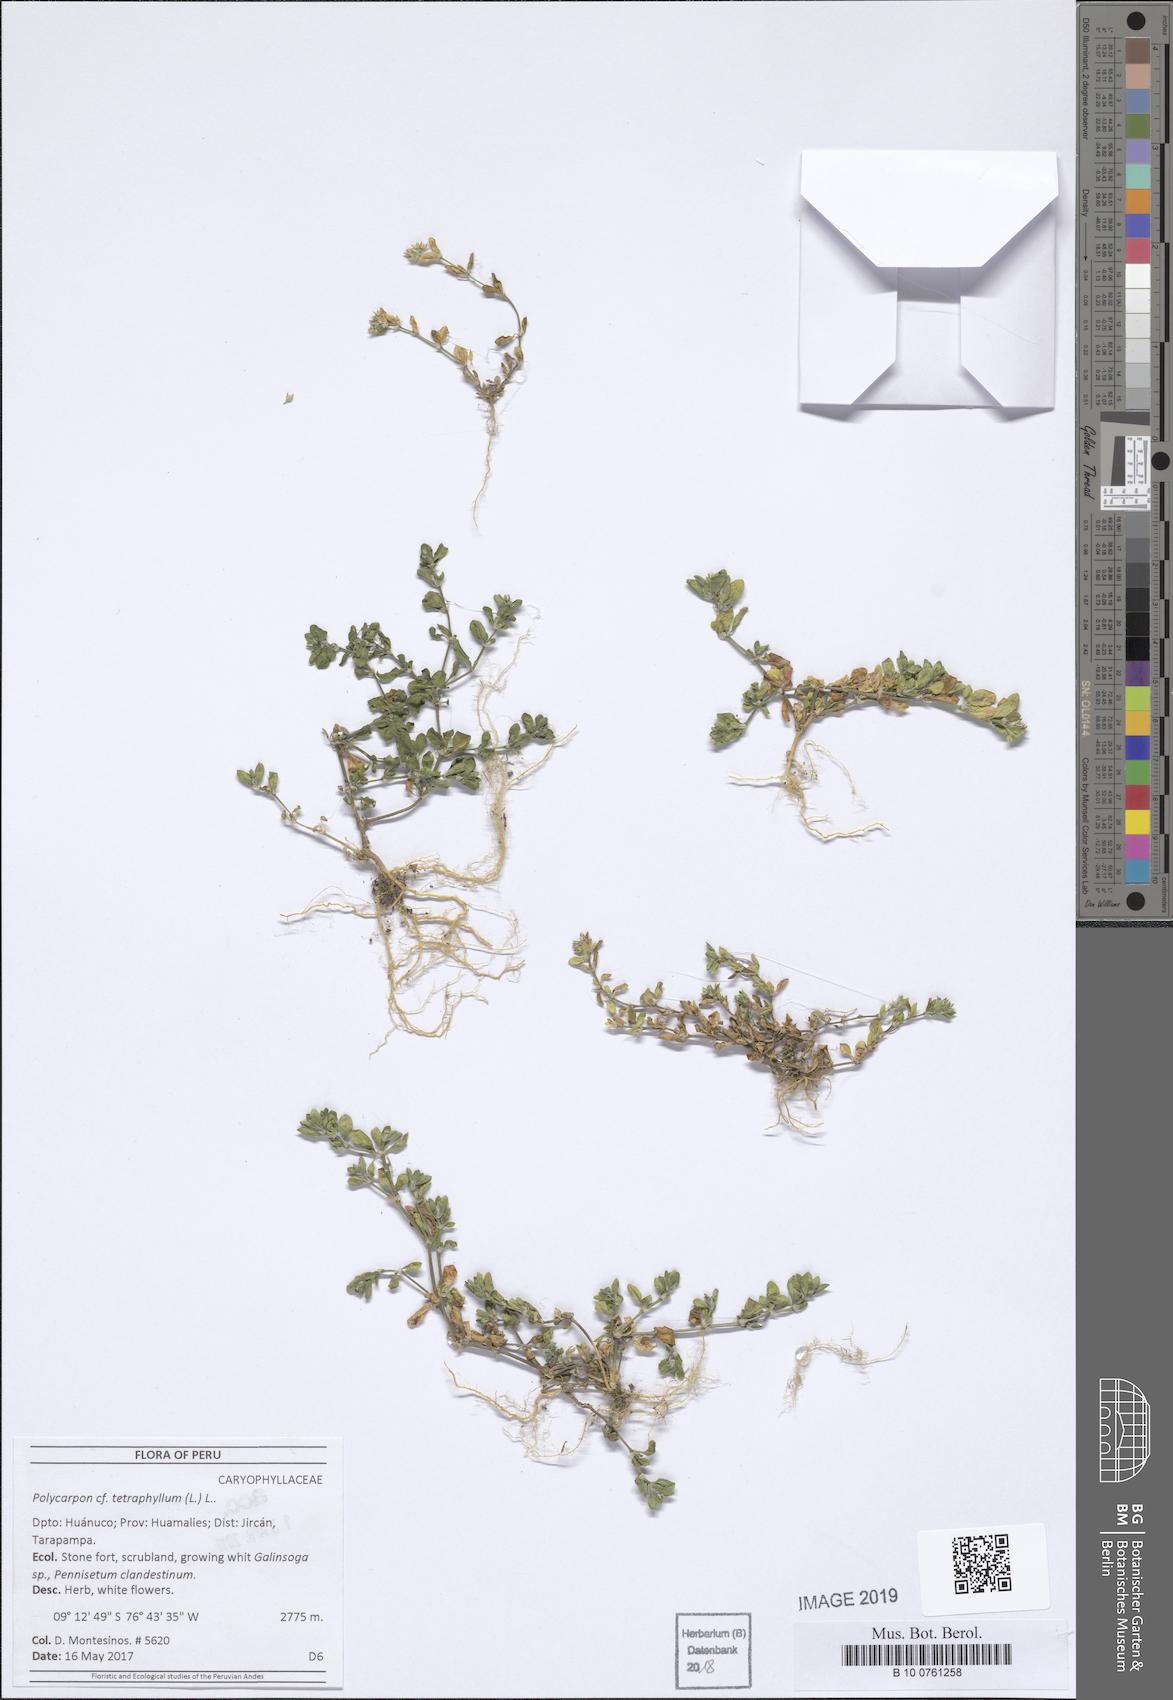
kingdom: Plantae
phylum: Tracheophyta
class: Magnoliopsida
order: Caryophyllales
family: Caryophyllaceae
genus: Polycarpon
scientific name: Polycarpon tetraphyllum
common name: Four-leaved all-seed
